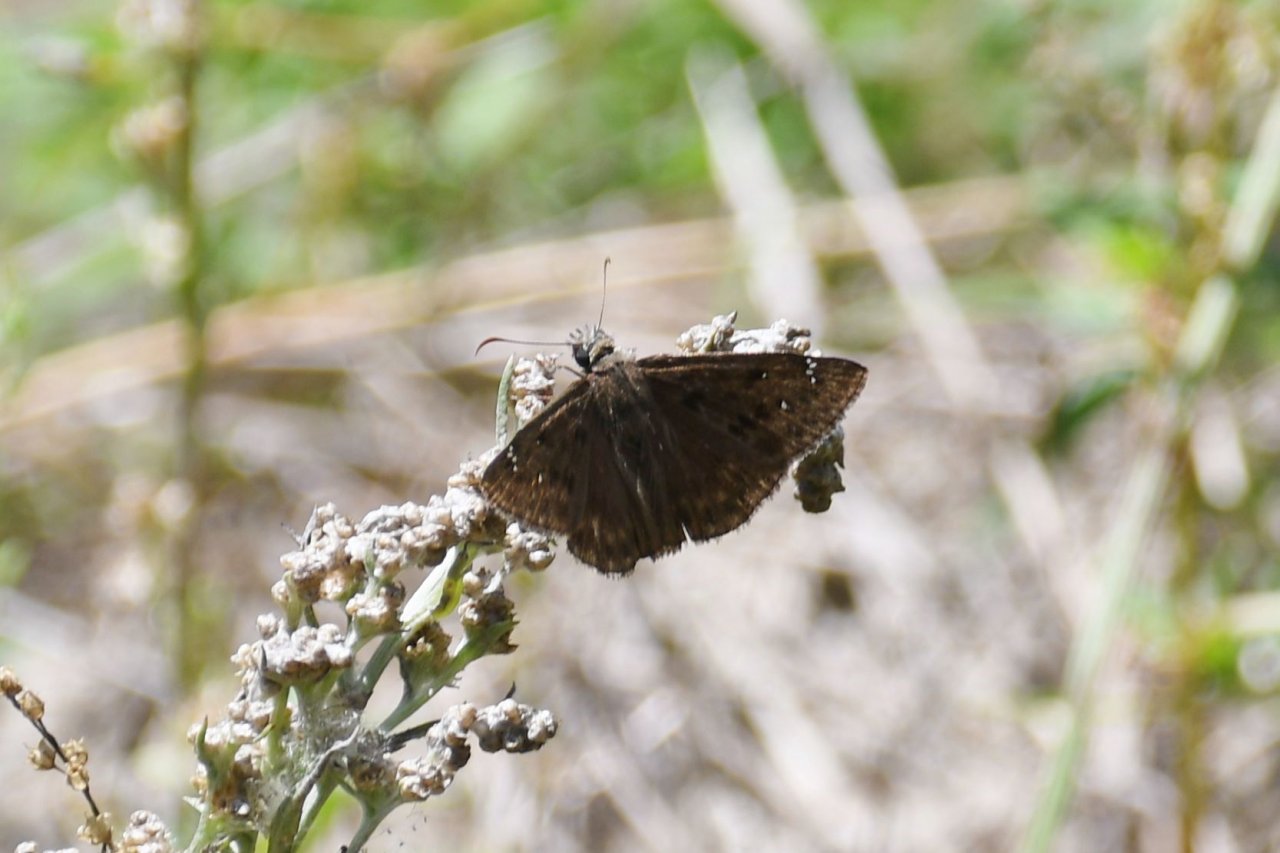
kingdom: Animalia
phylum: Arthropoda
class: Insecta
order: Lepidoptera
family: Hesperiidae
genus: Gesta
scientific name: Gesta
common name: Horace's Duskywing
